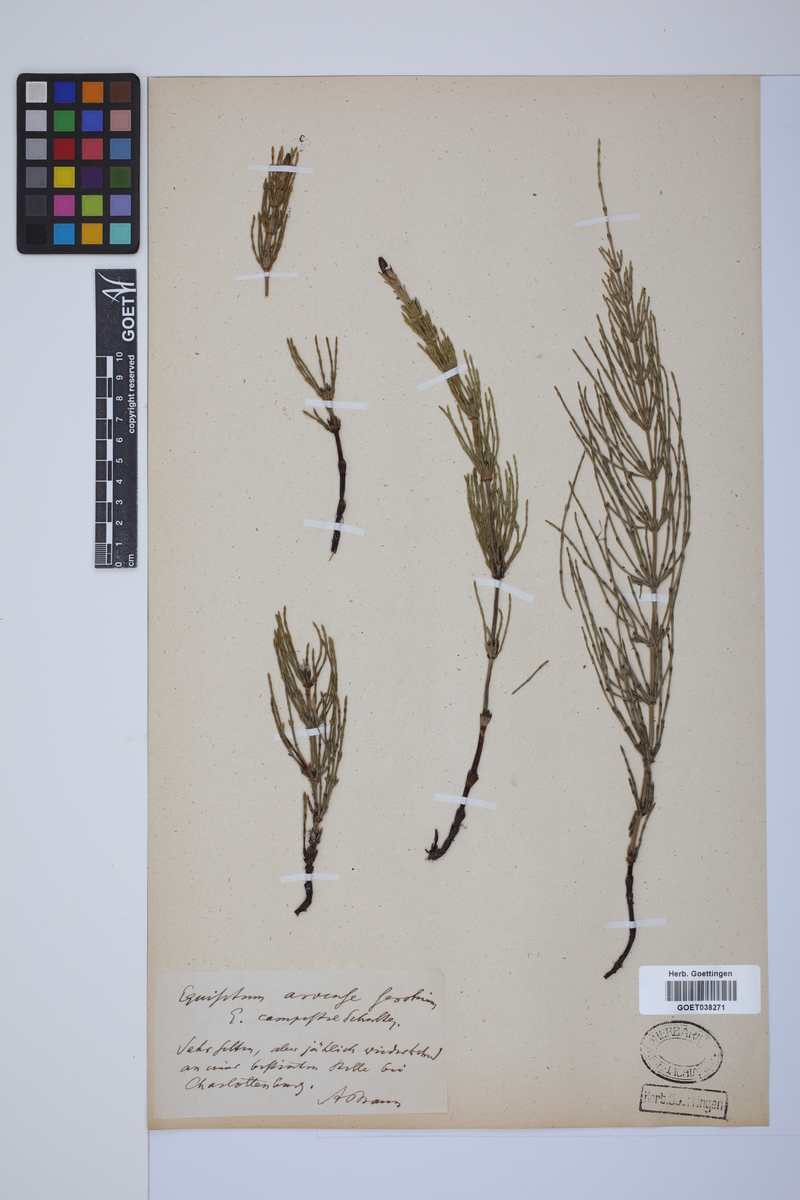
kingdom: Plantae
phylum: Tracheophyta
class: Polypodiopsida
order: Equisetales
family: Equisetaceae
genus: Equisetum
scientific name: Equisetum arvense
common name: Field horsetail
